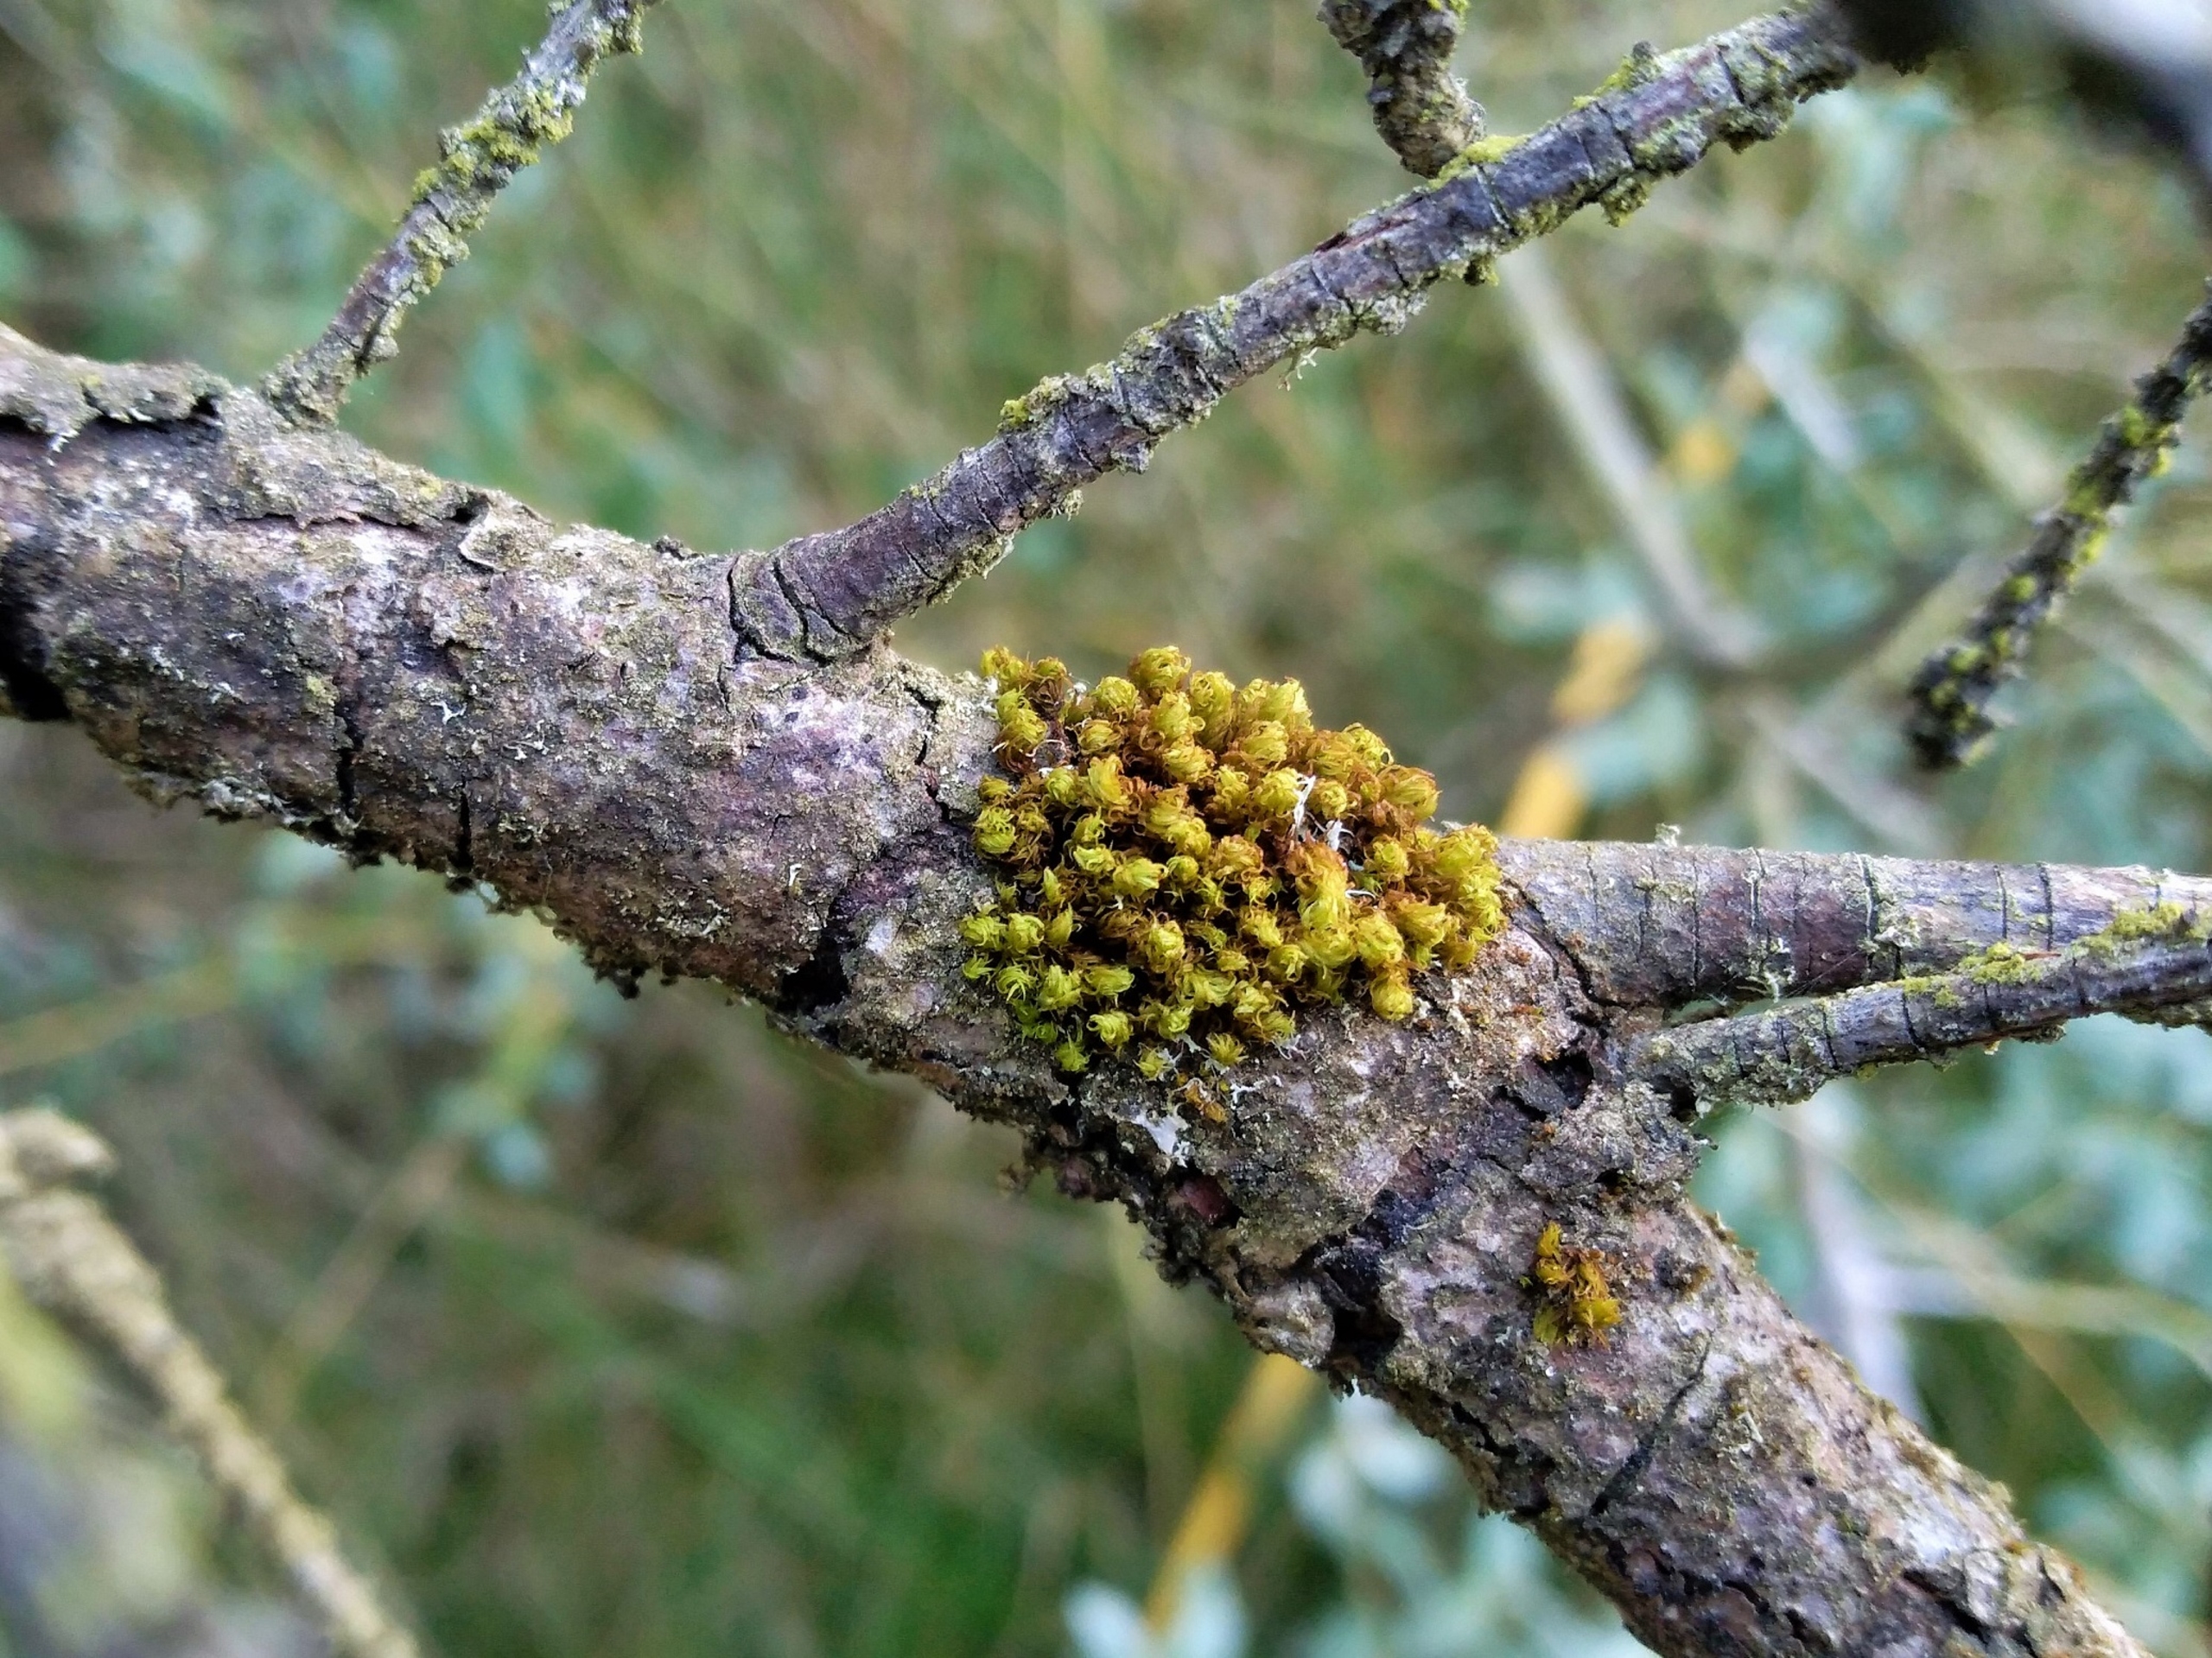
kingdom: Plantae
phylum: Bryophyta
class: Bryopsida
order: Orthotrichales
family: Orthotrichaceae
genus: Plenogemma
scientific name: Plenogemma phyllantha
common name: Stor låddenhætte
